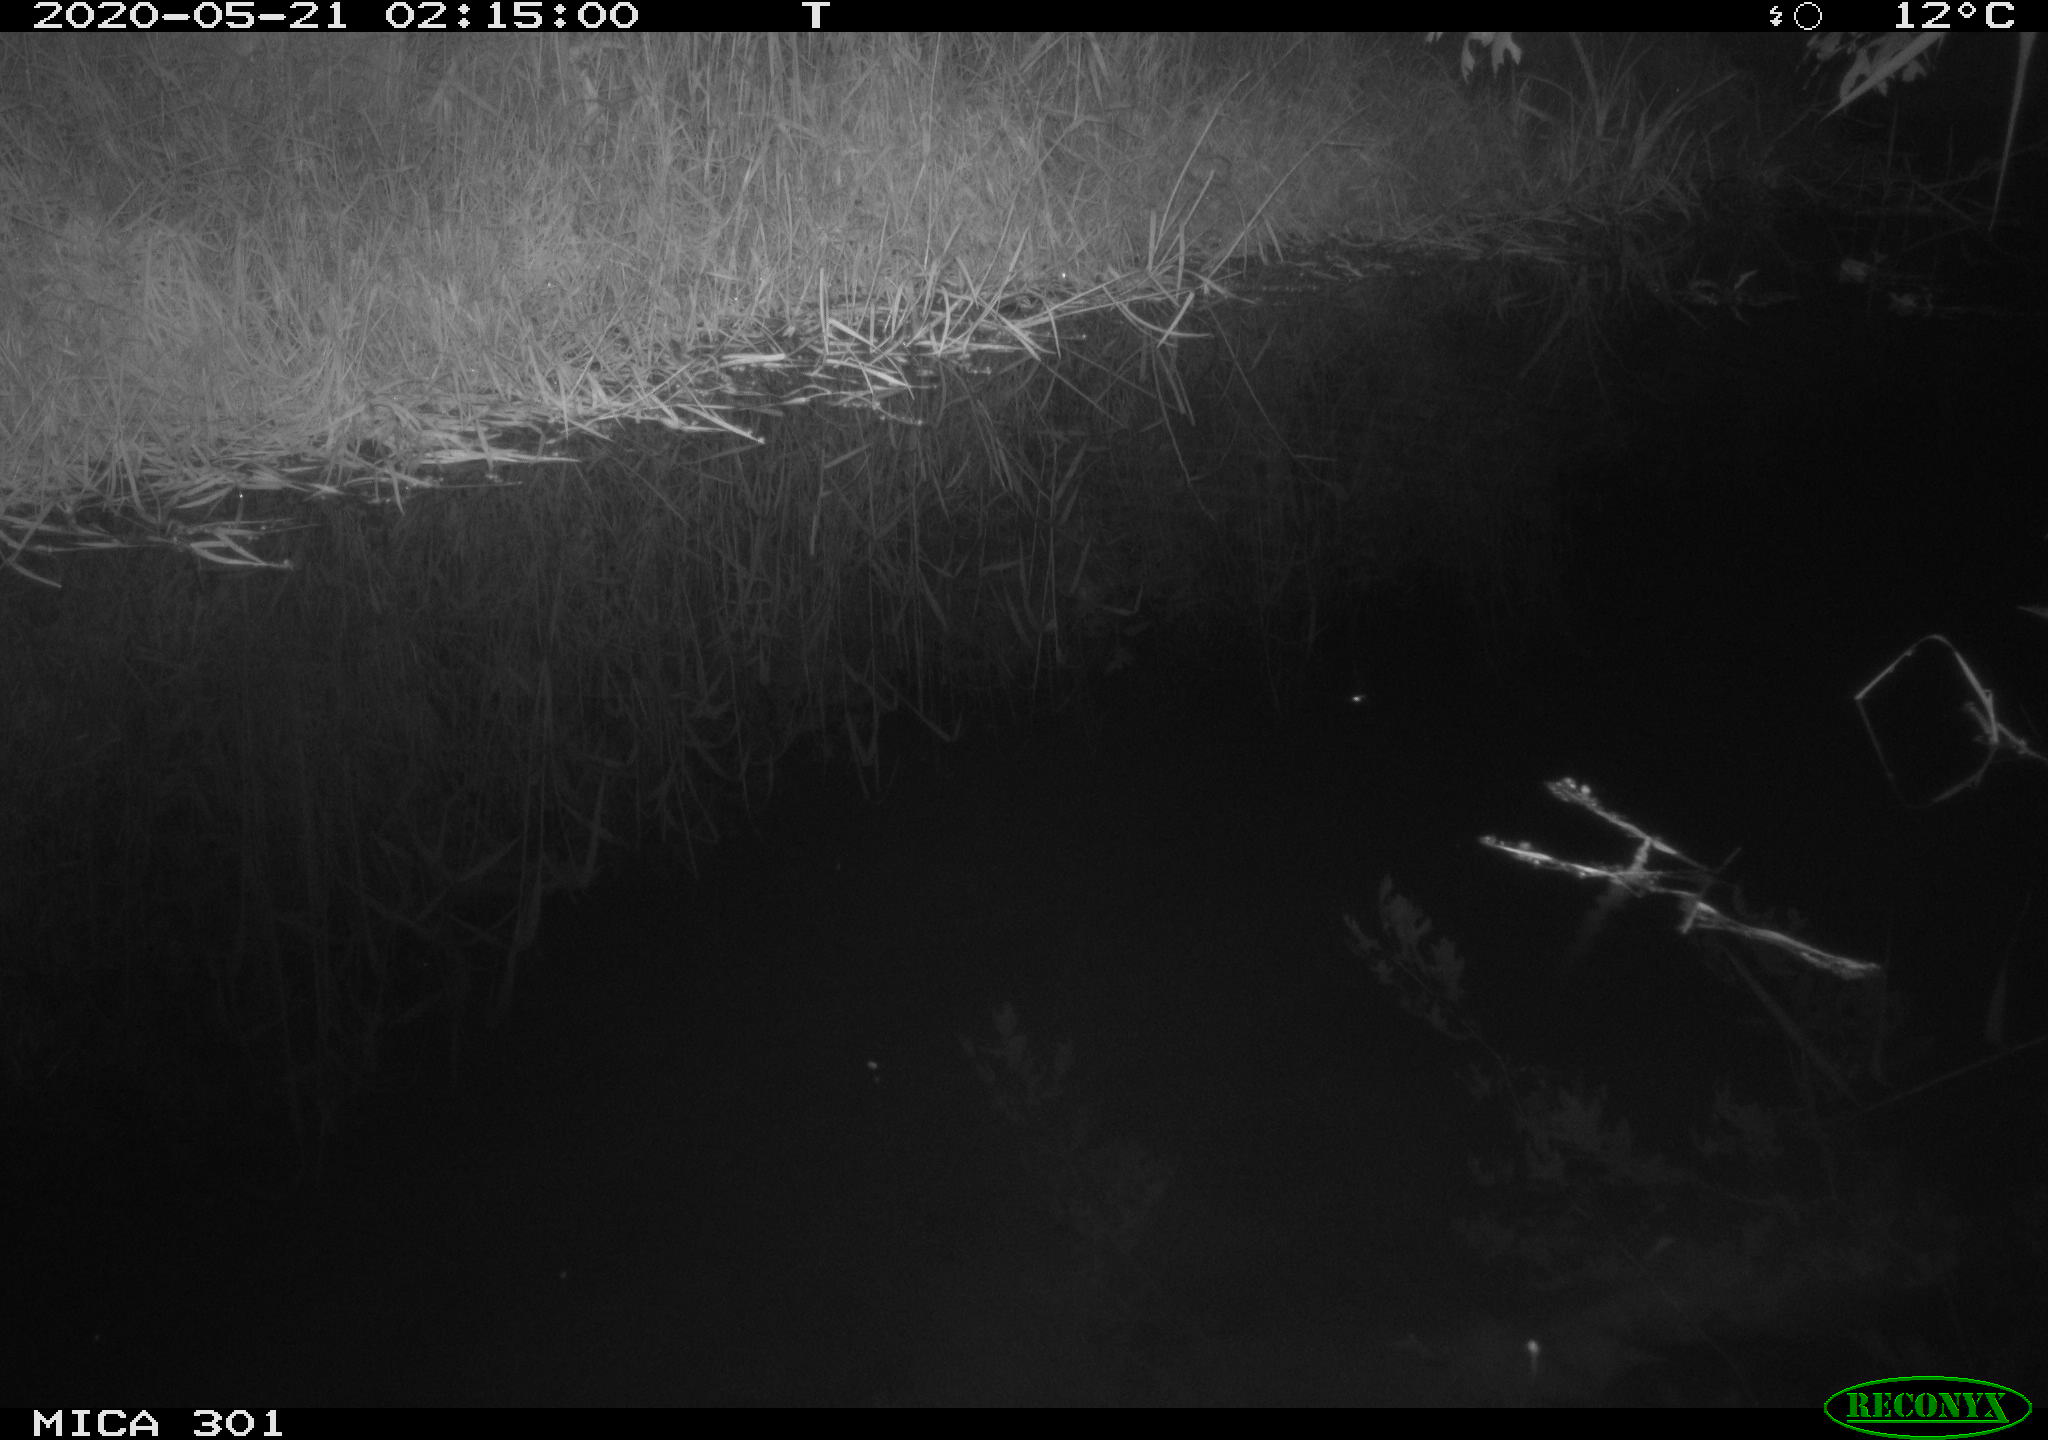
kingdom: Animalia
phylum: Chordata
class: Mammalia
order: Rodentia
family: Castoridae
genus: Castor
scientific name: Castor fiber
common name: Eurasian beaver
